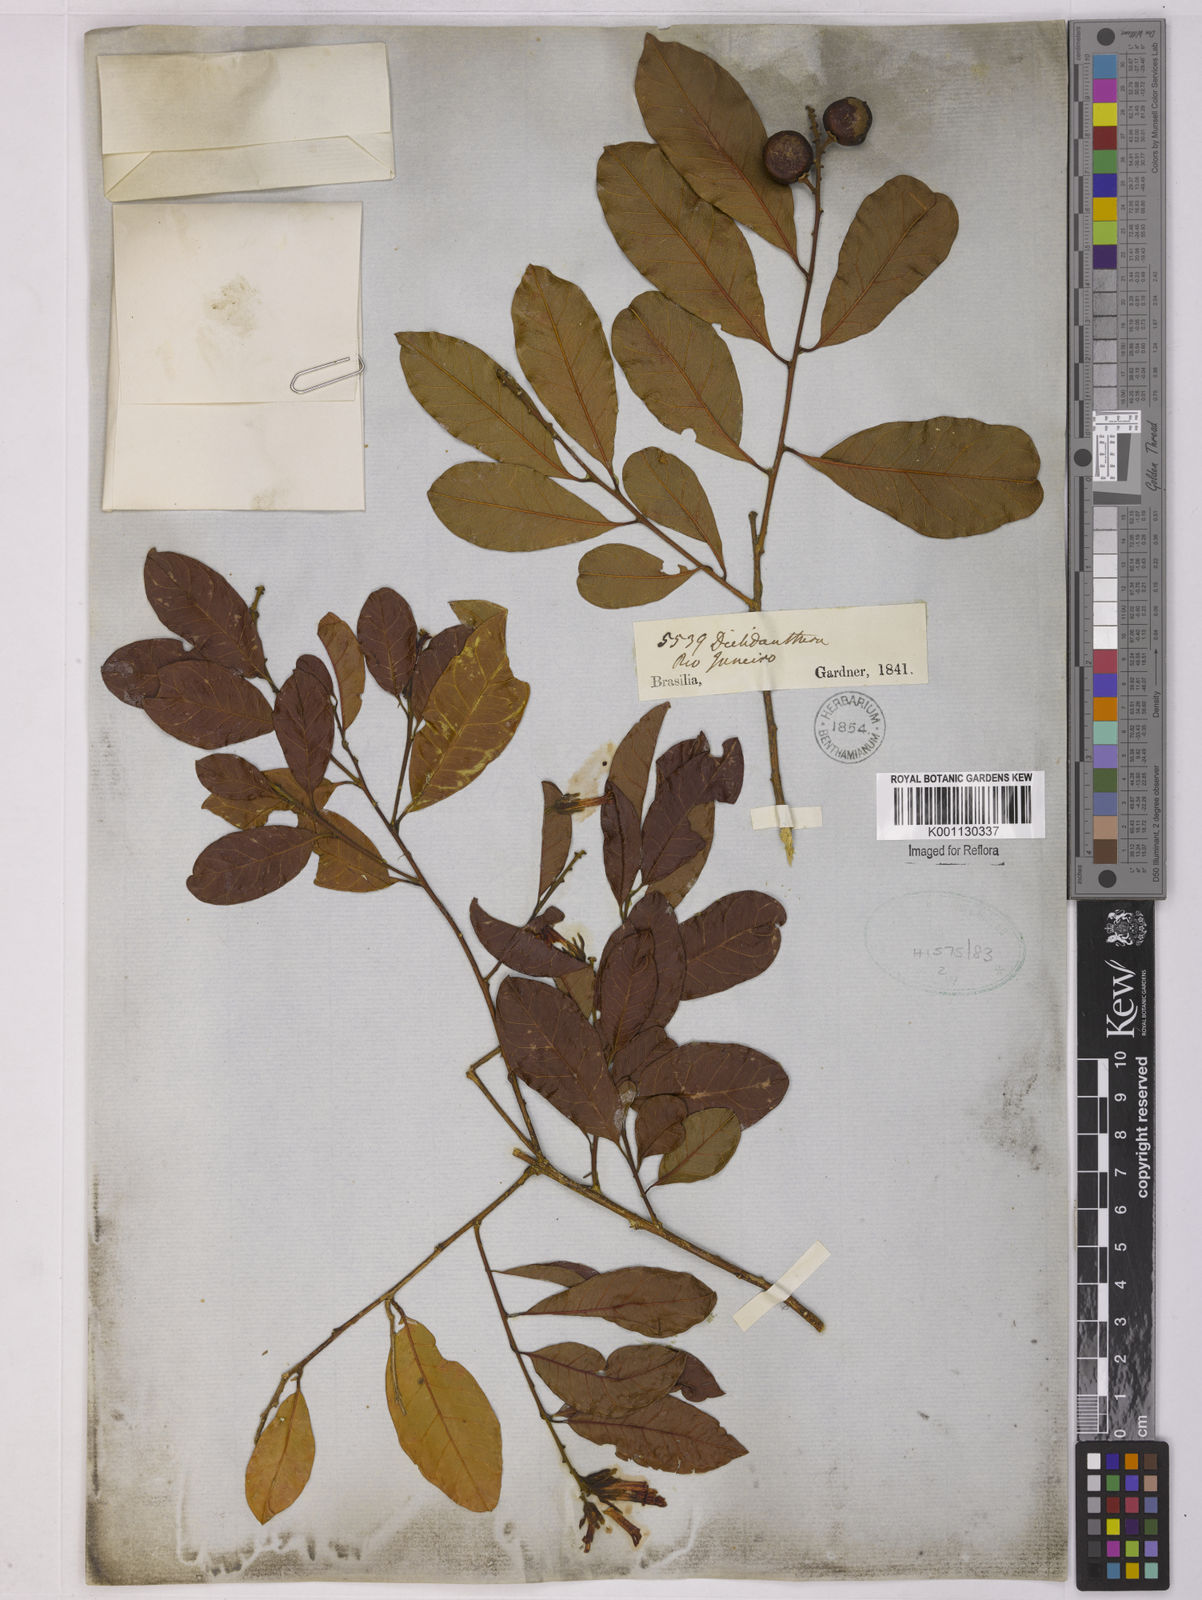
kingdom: Plantae
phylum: Tracheophyta
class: Magnoliopsida
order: Fabales
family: Polygalaceae
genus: Diclidanthera
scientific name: Diclidanthera
